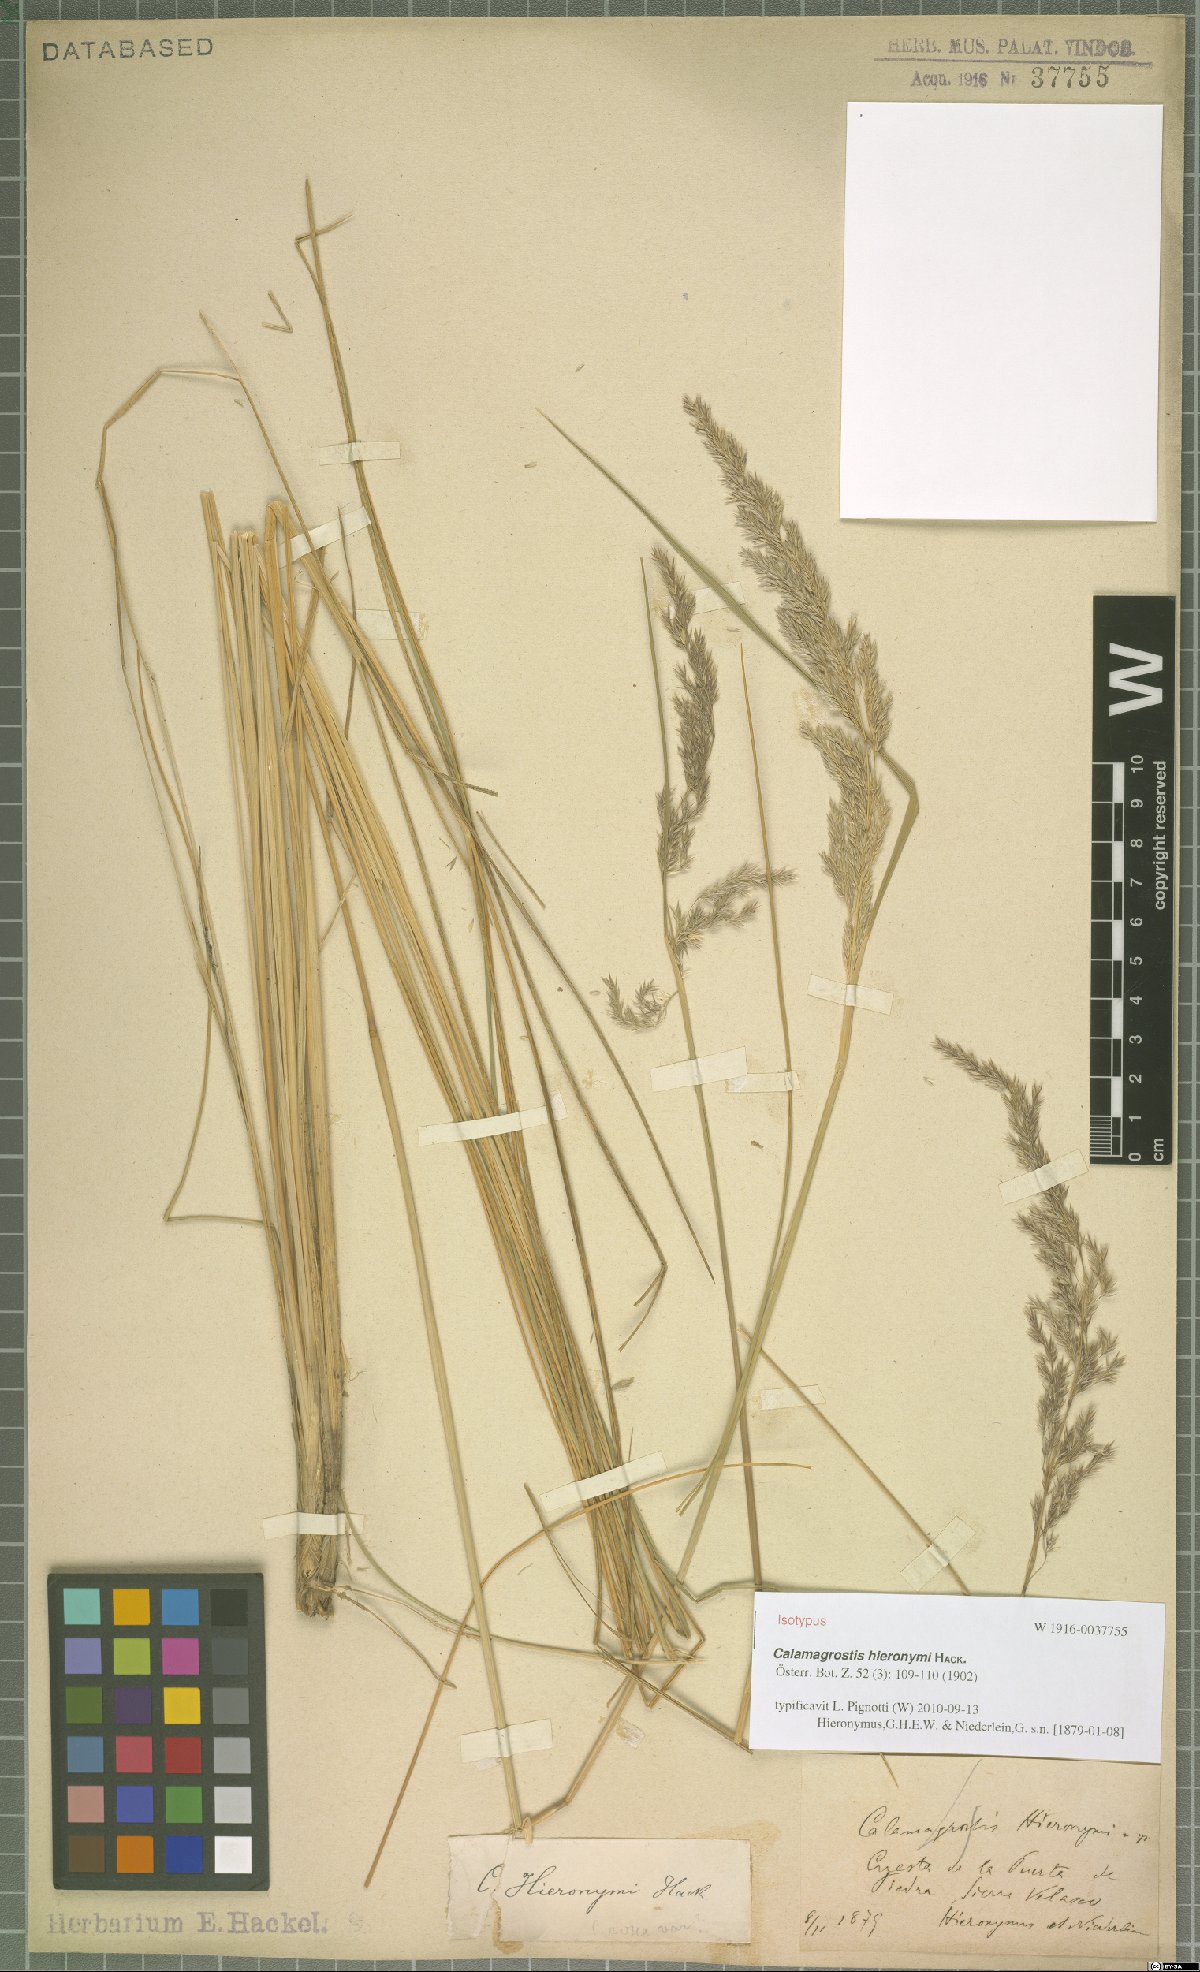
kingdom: Plantae
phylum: Tracheophyta
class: Liliopsida
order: Poales
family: Poaceae
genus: Cinnagrostis
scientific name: Cinnagrostis hieronymi
